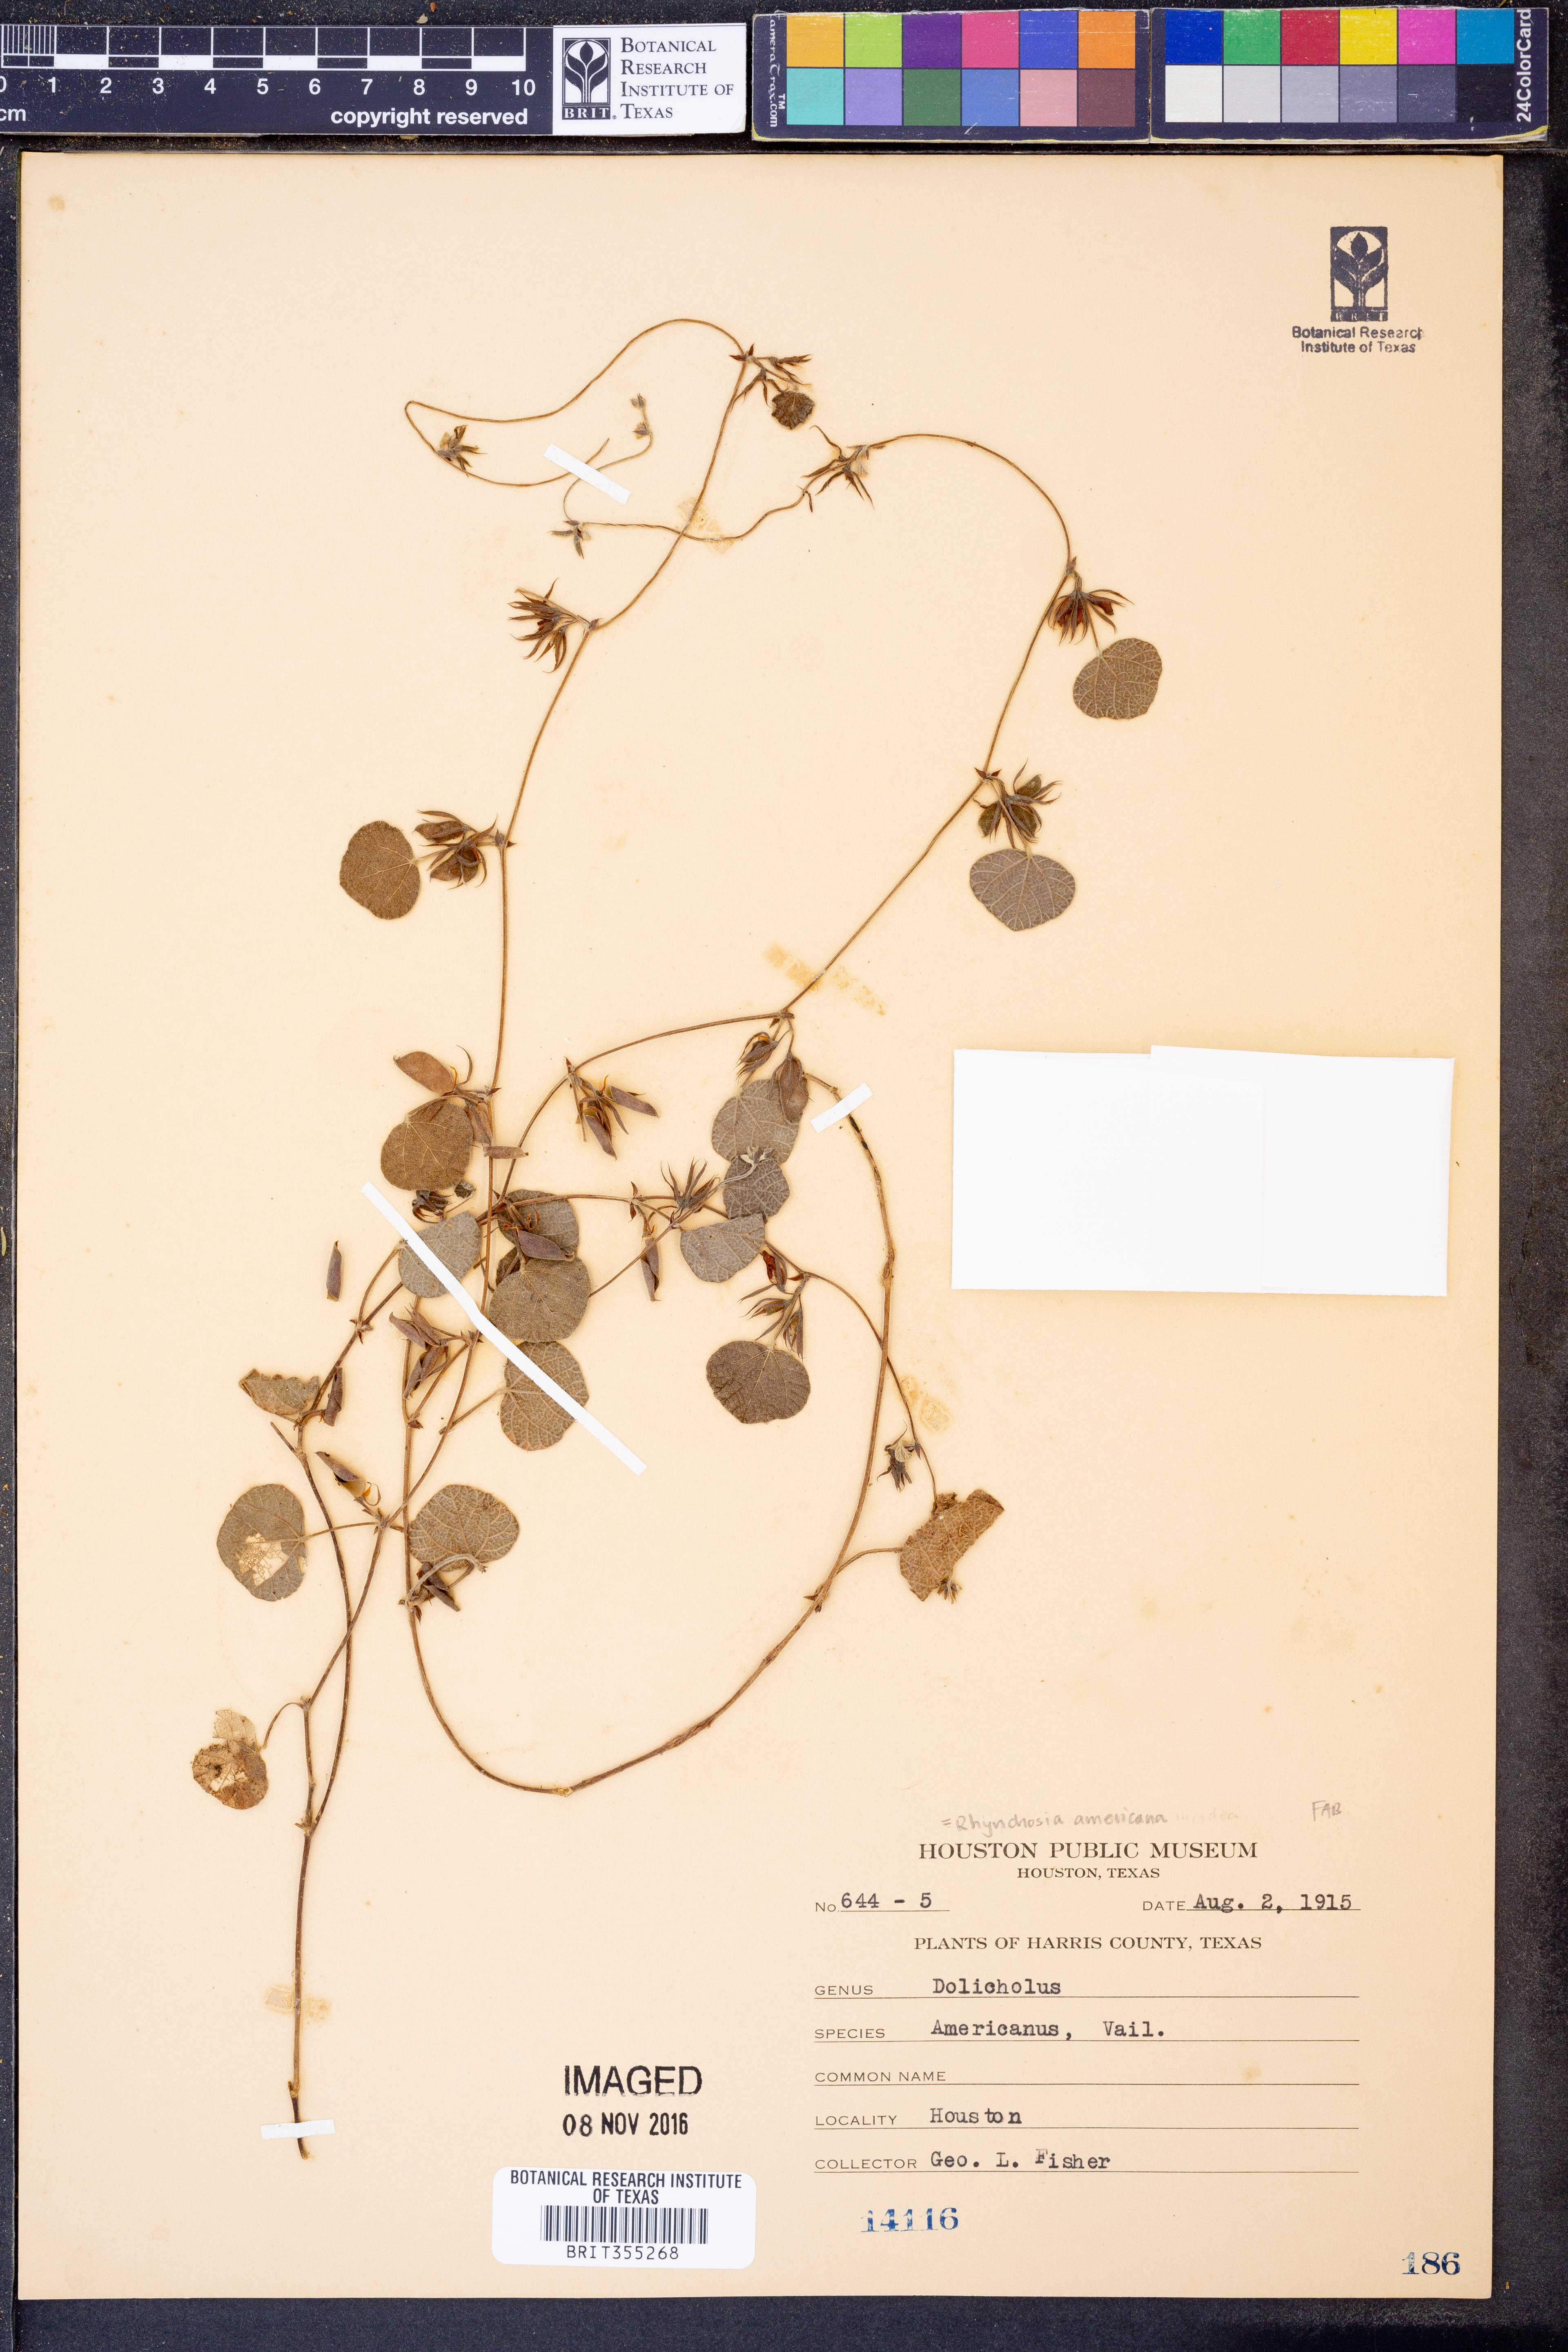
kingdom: Plantae
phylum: Tracheophyta
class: Magnoliopsida
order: Fabales
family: Fabaceae
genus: Rhynchosia
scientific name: Rhynchosia americana
